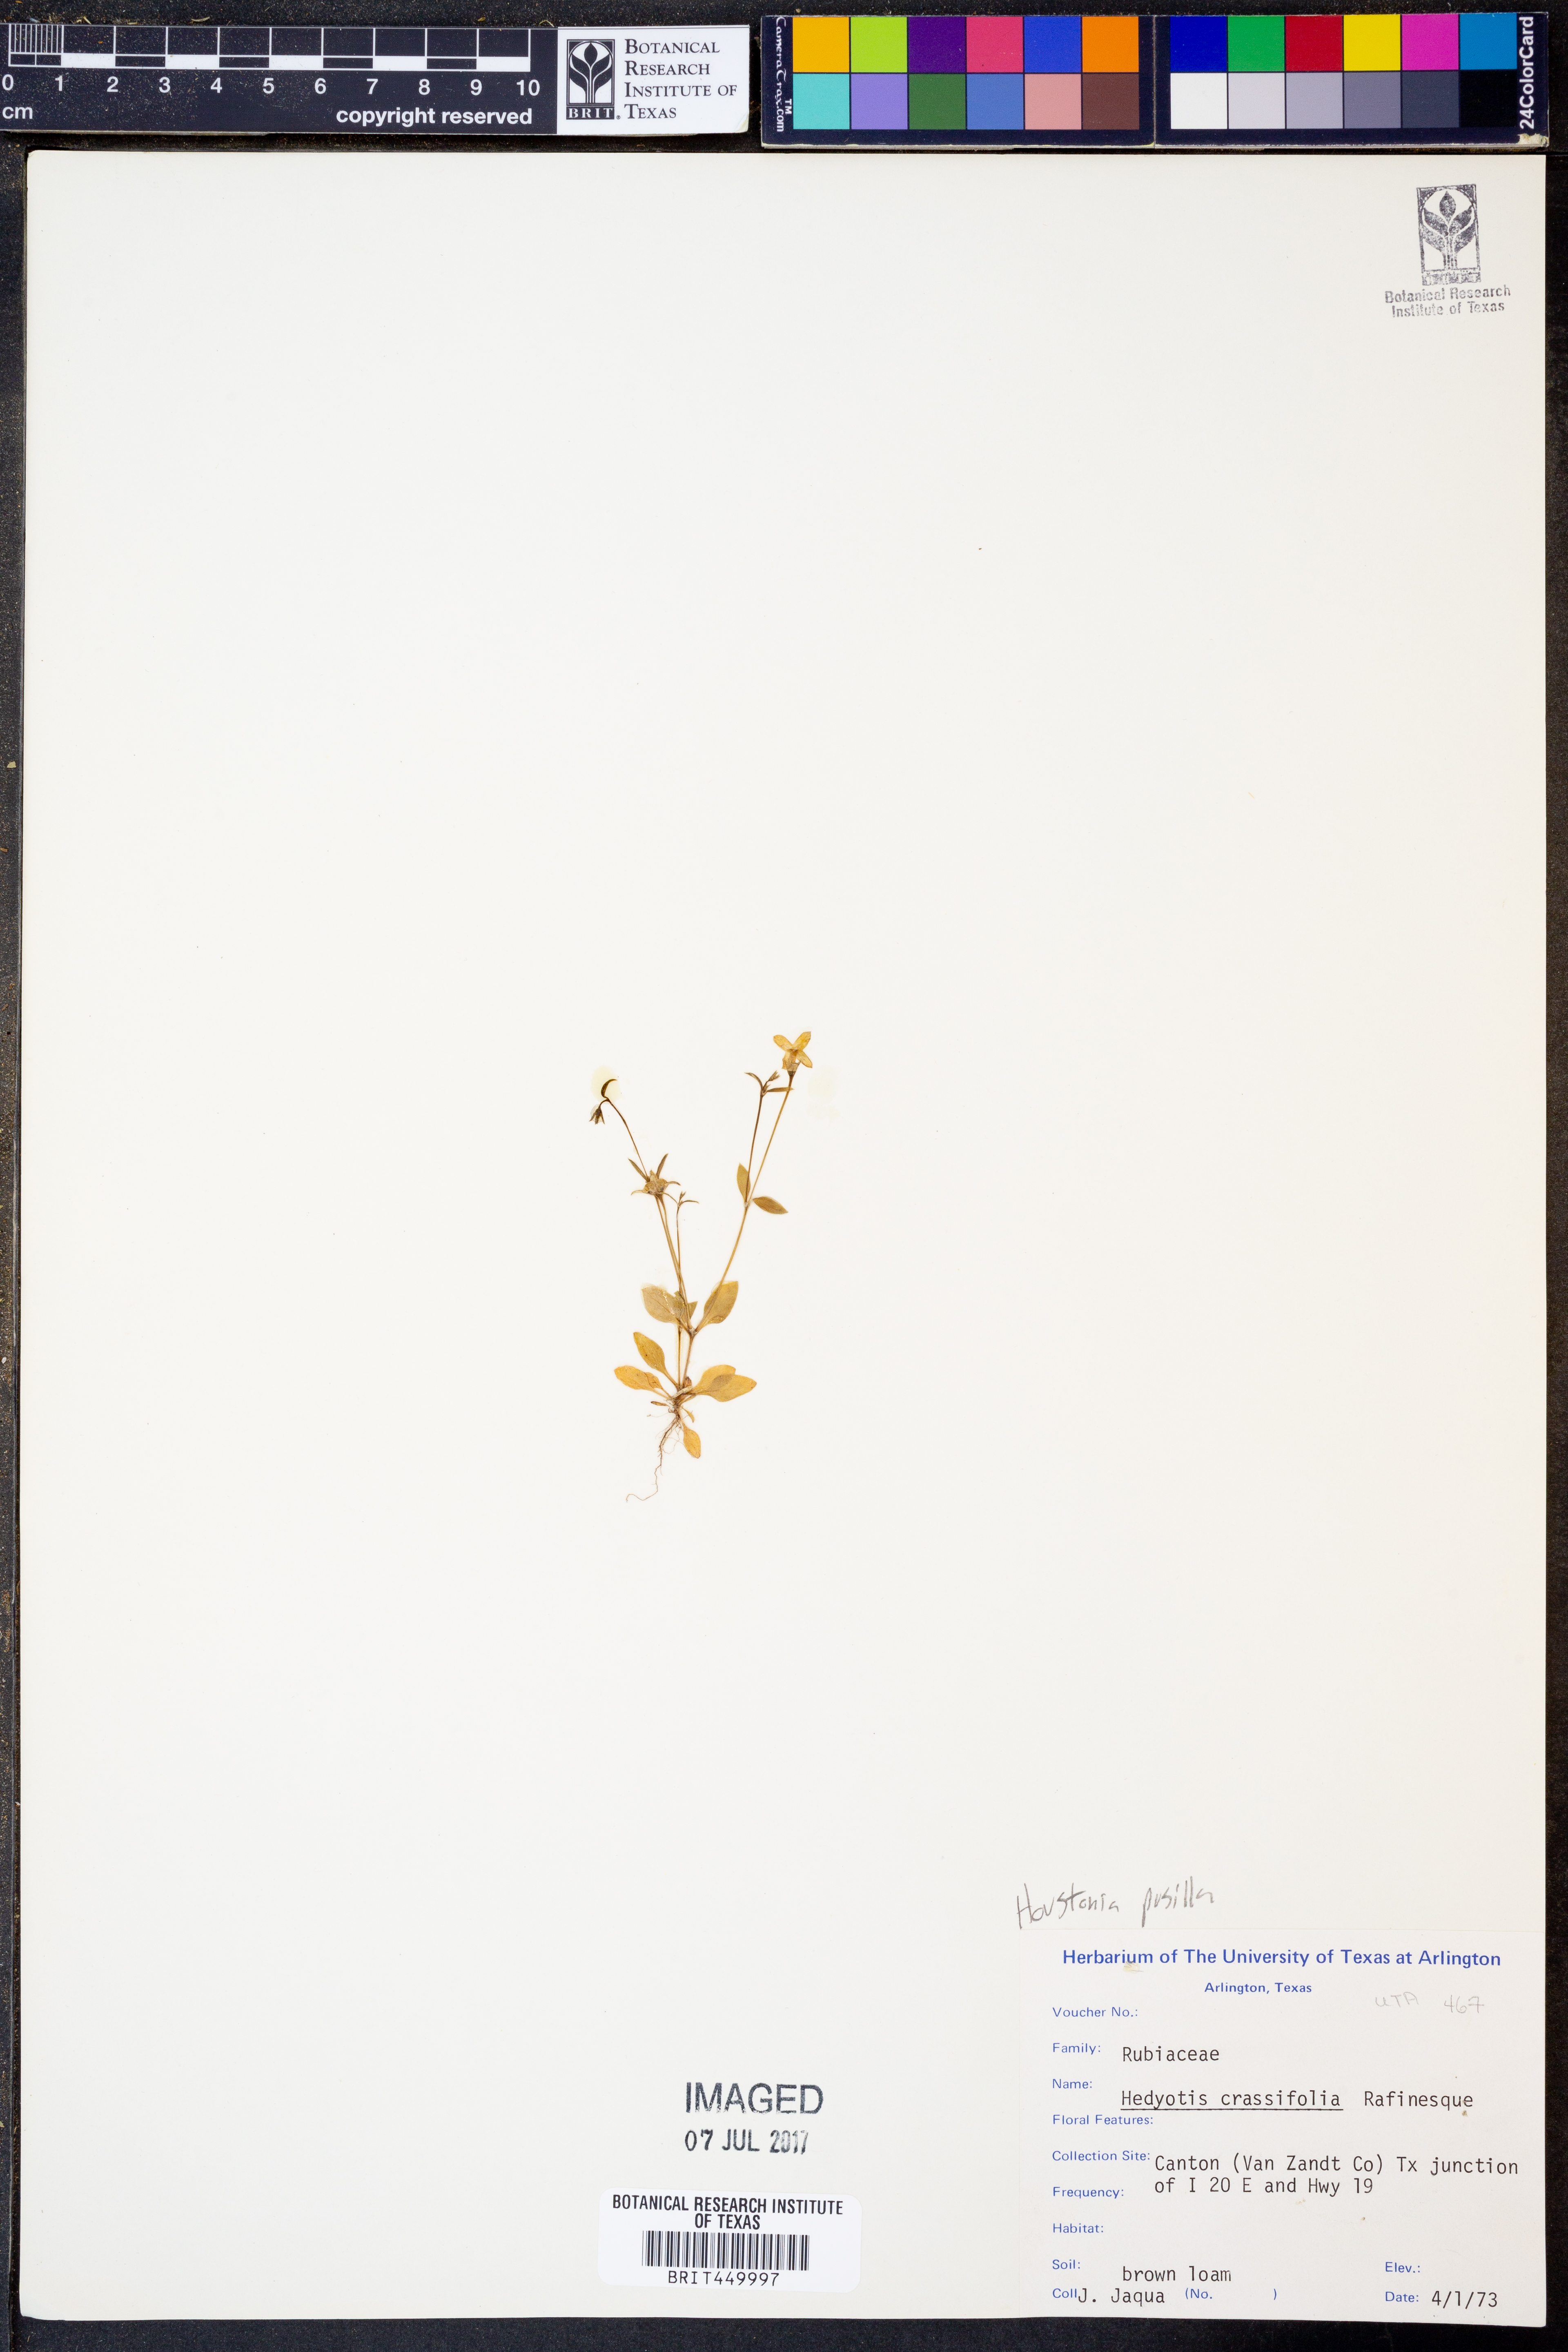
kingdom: Plantae
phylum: Tracheophyta
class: Magnoliopsida
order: Gentianales
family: Rubiaceae
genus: Houstonia
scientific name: Houstonia pusilla
